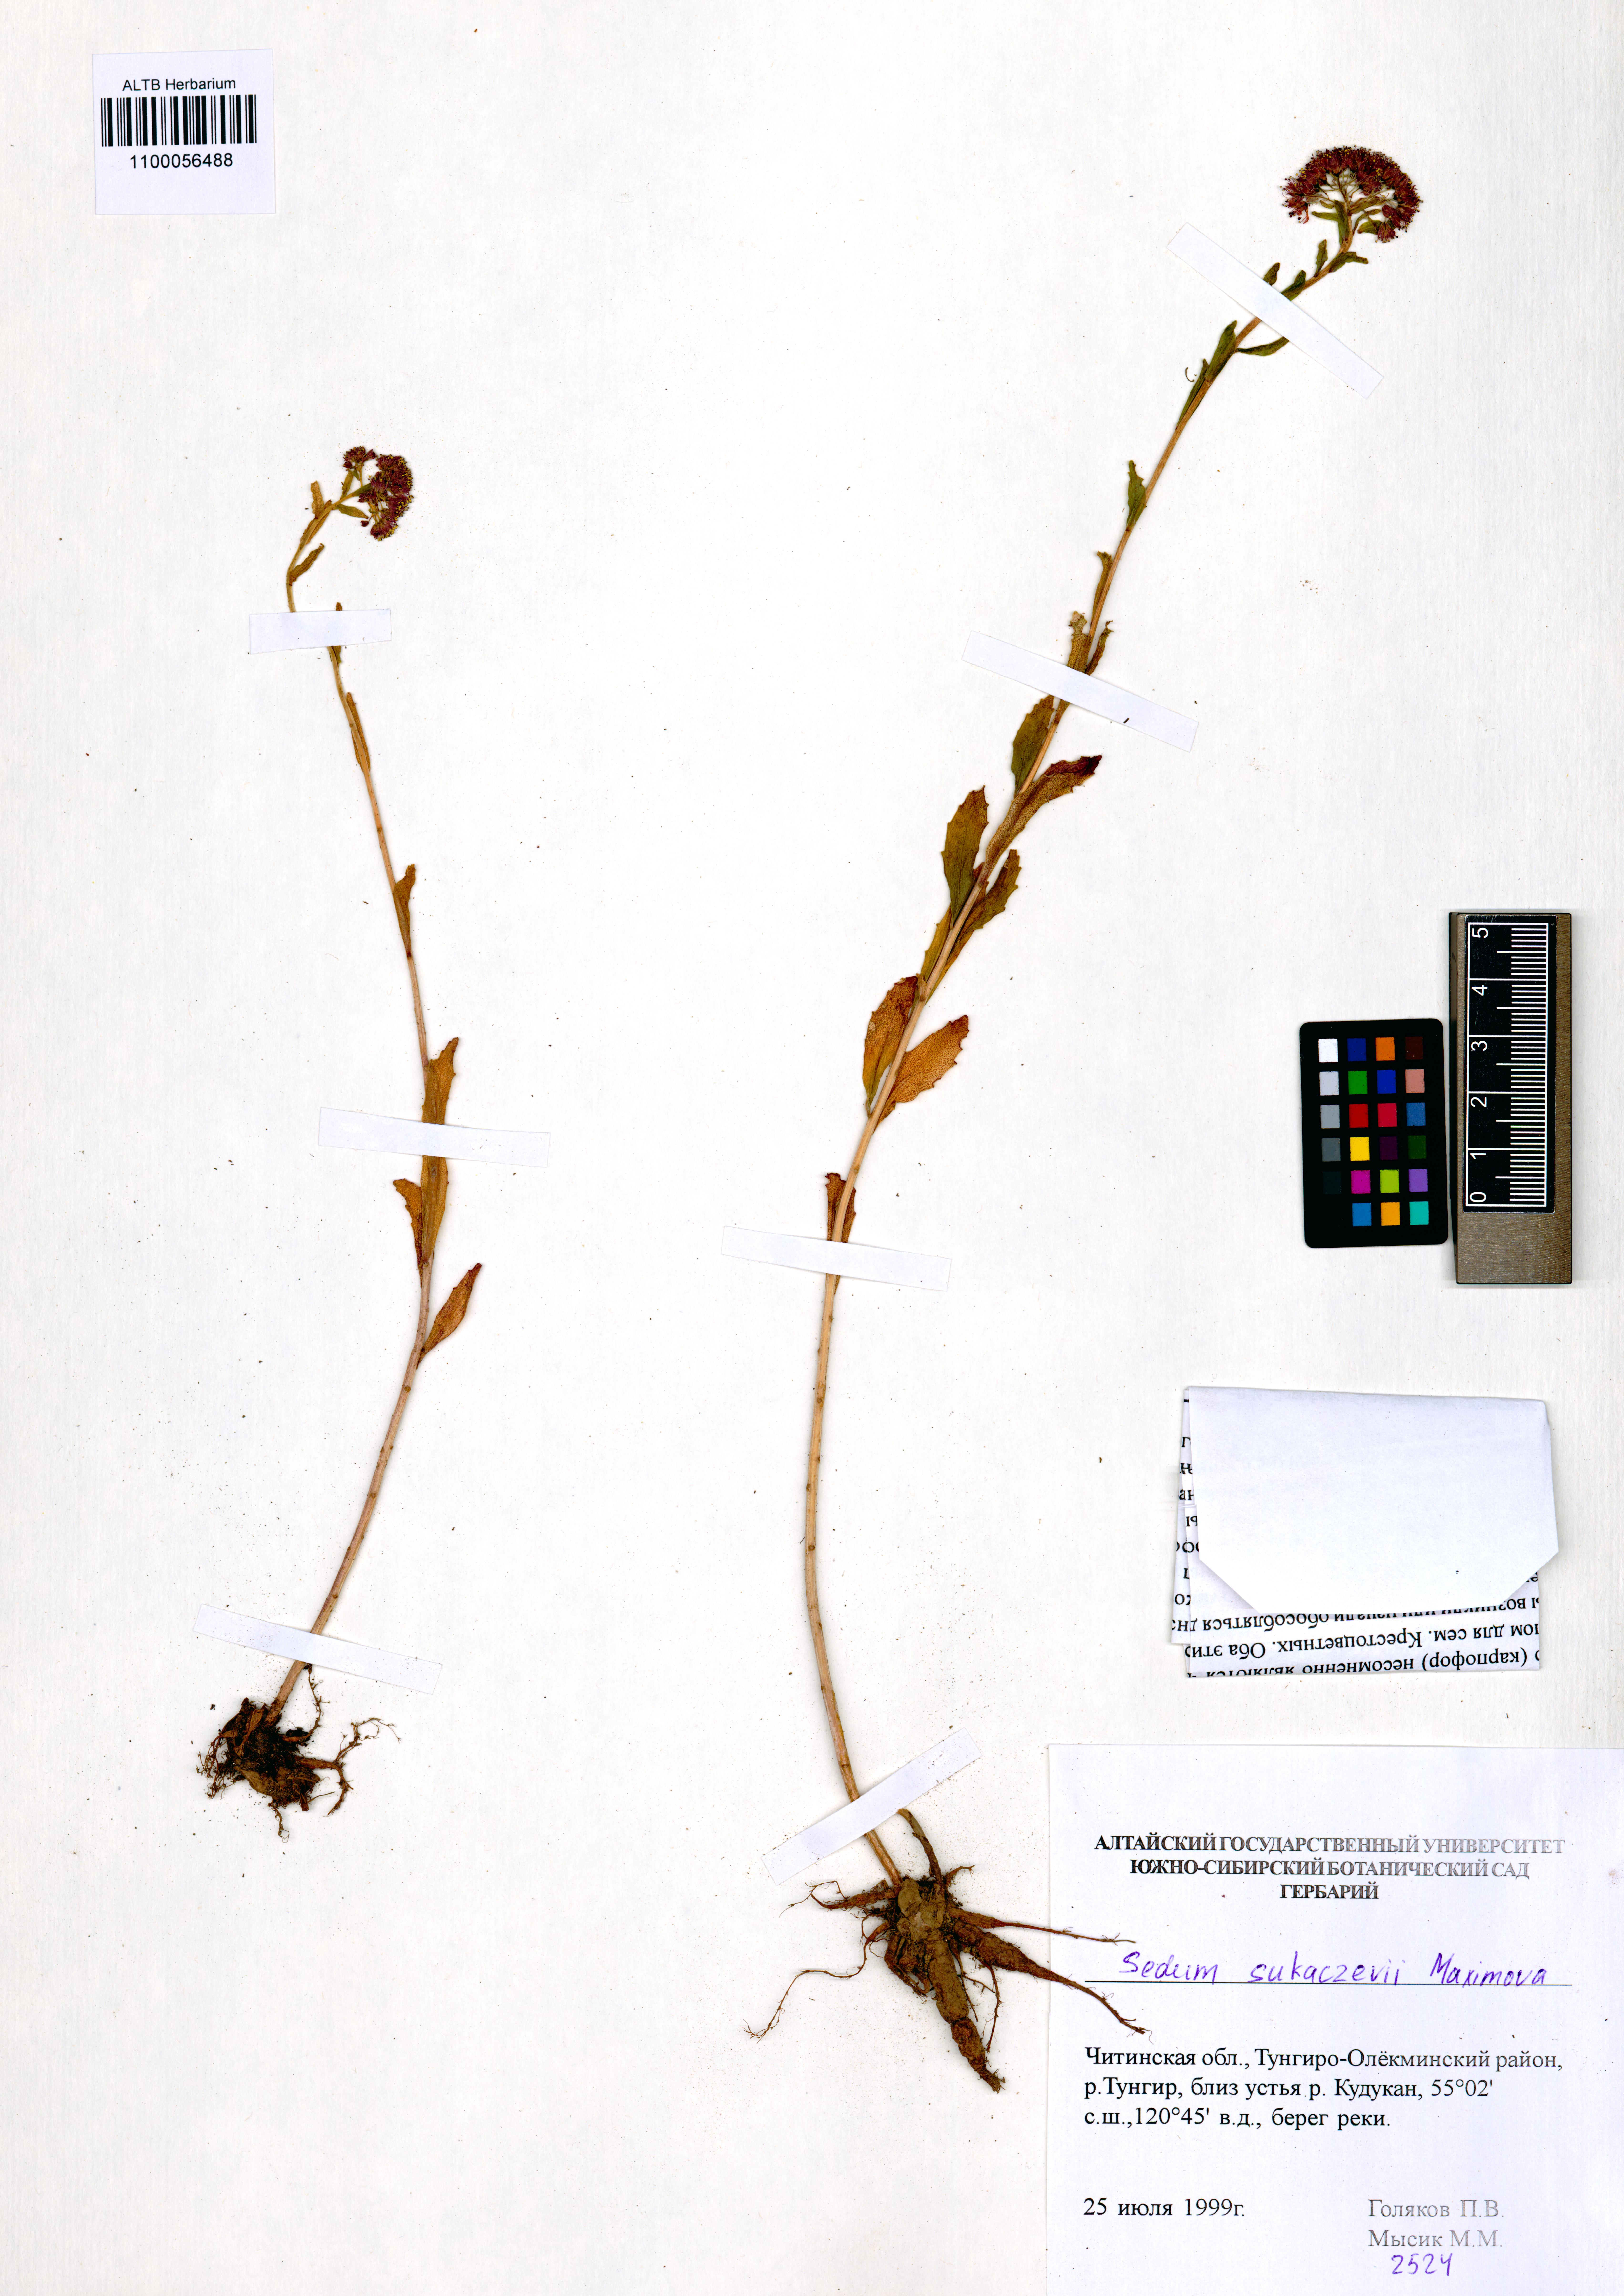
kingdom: Plantae
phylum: Tracheophyta
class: Magnoliopsida
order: Saxifragales
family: Crassulaceae
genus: Hylotelephium
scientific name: Hylotelephium pallescens
